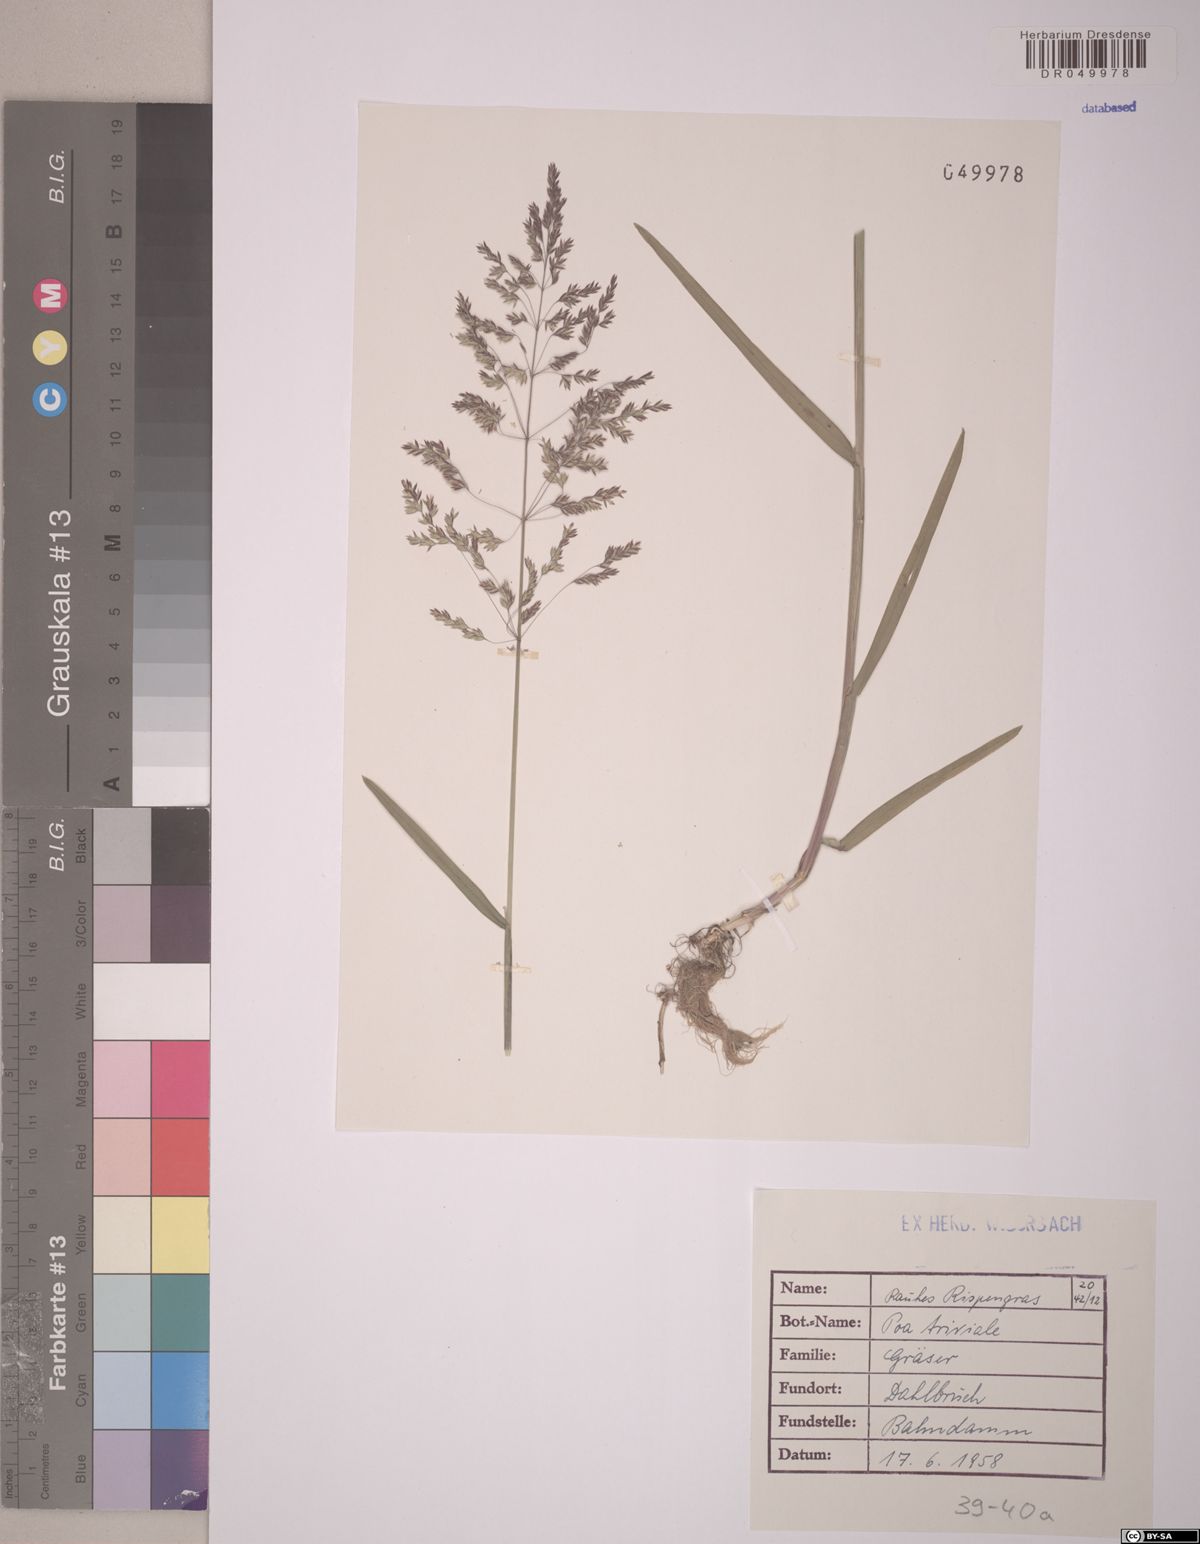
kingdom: Plantae
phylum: Tracheophyta
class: Liliopsida
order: Poales
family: Poaceae
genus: Poa
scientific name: Poa trivialis
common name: Rough bluegrass
